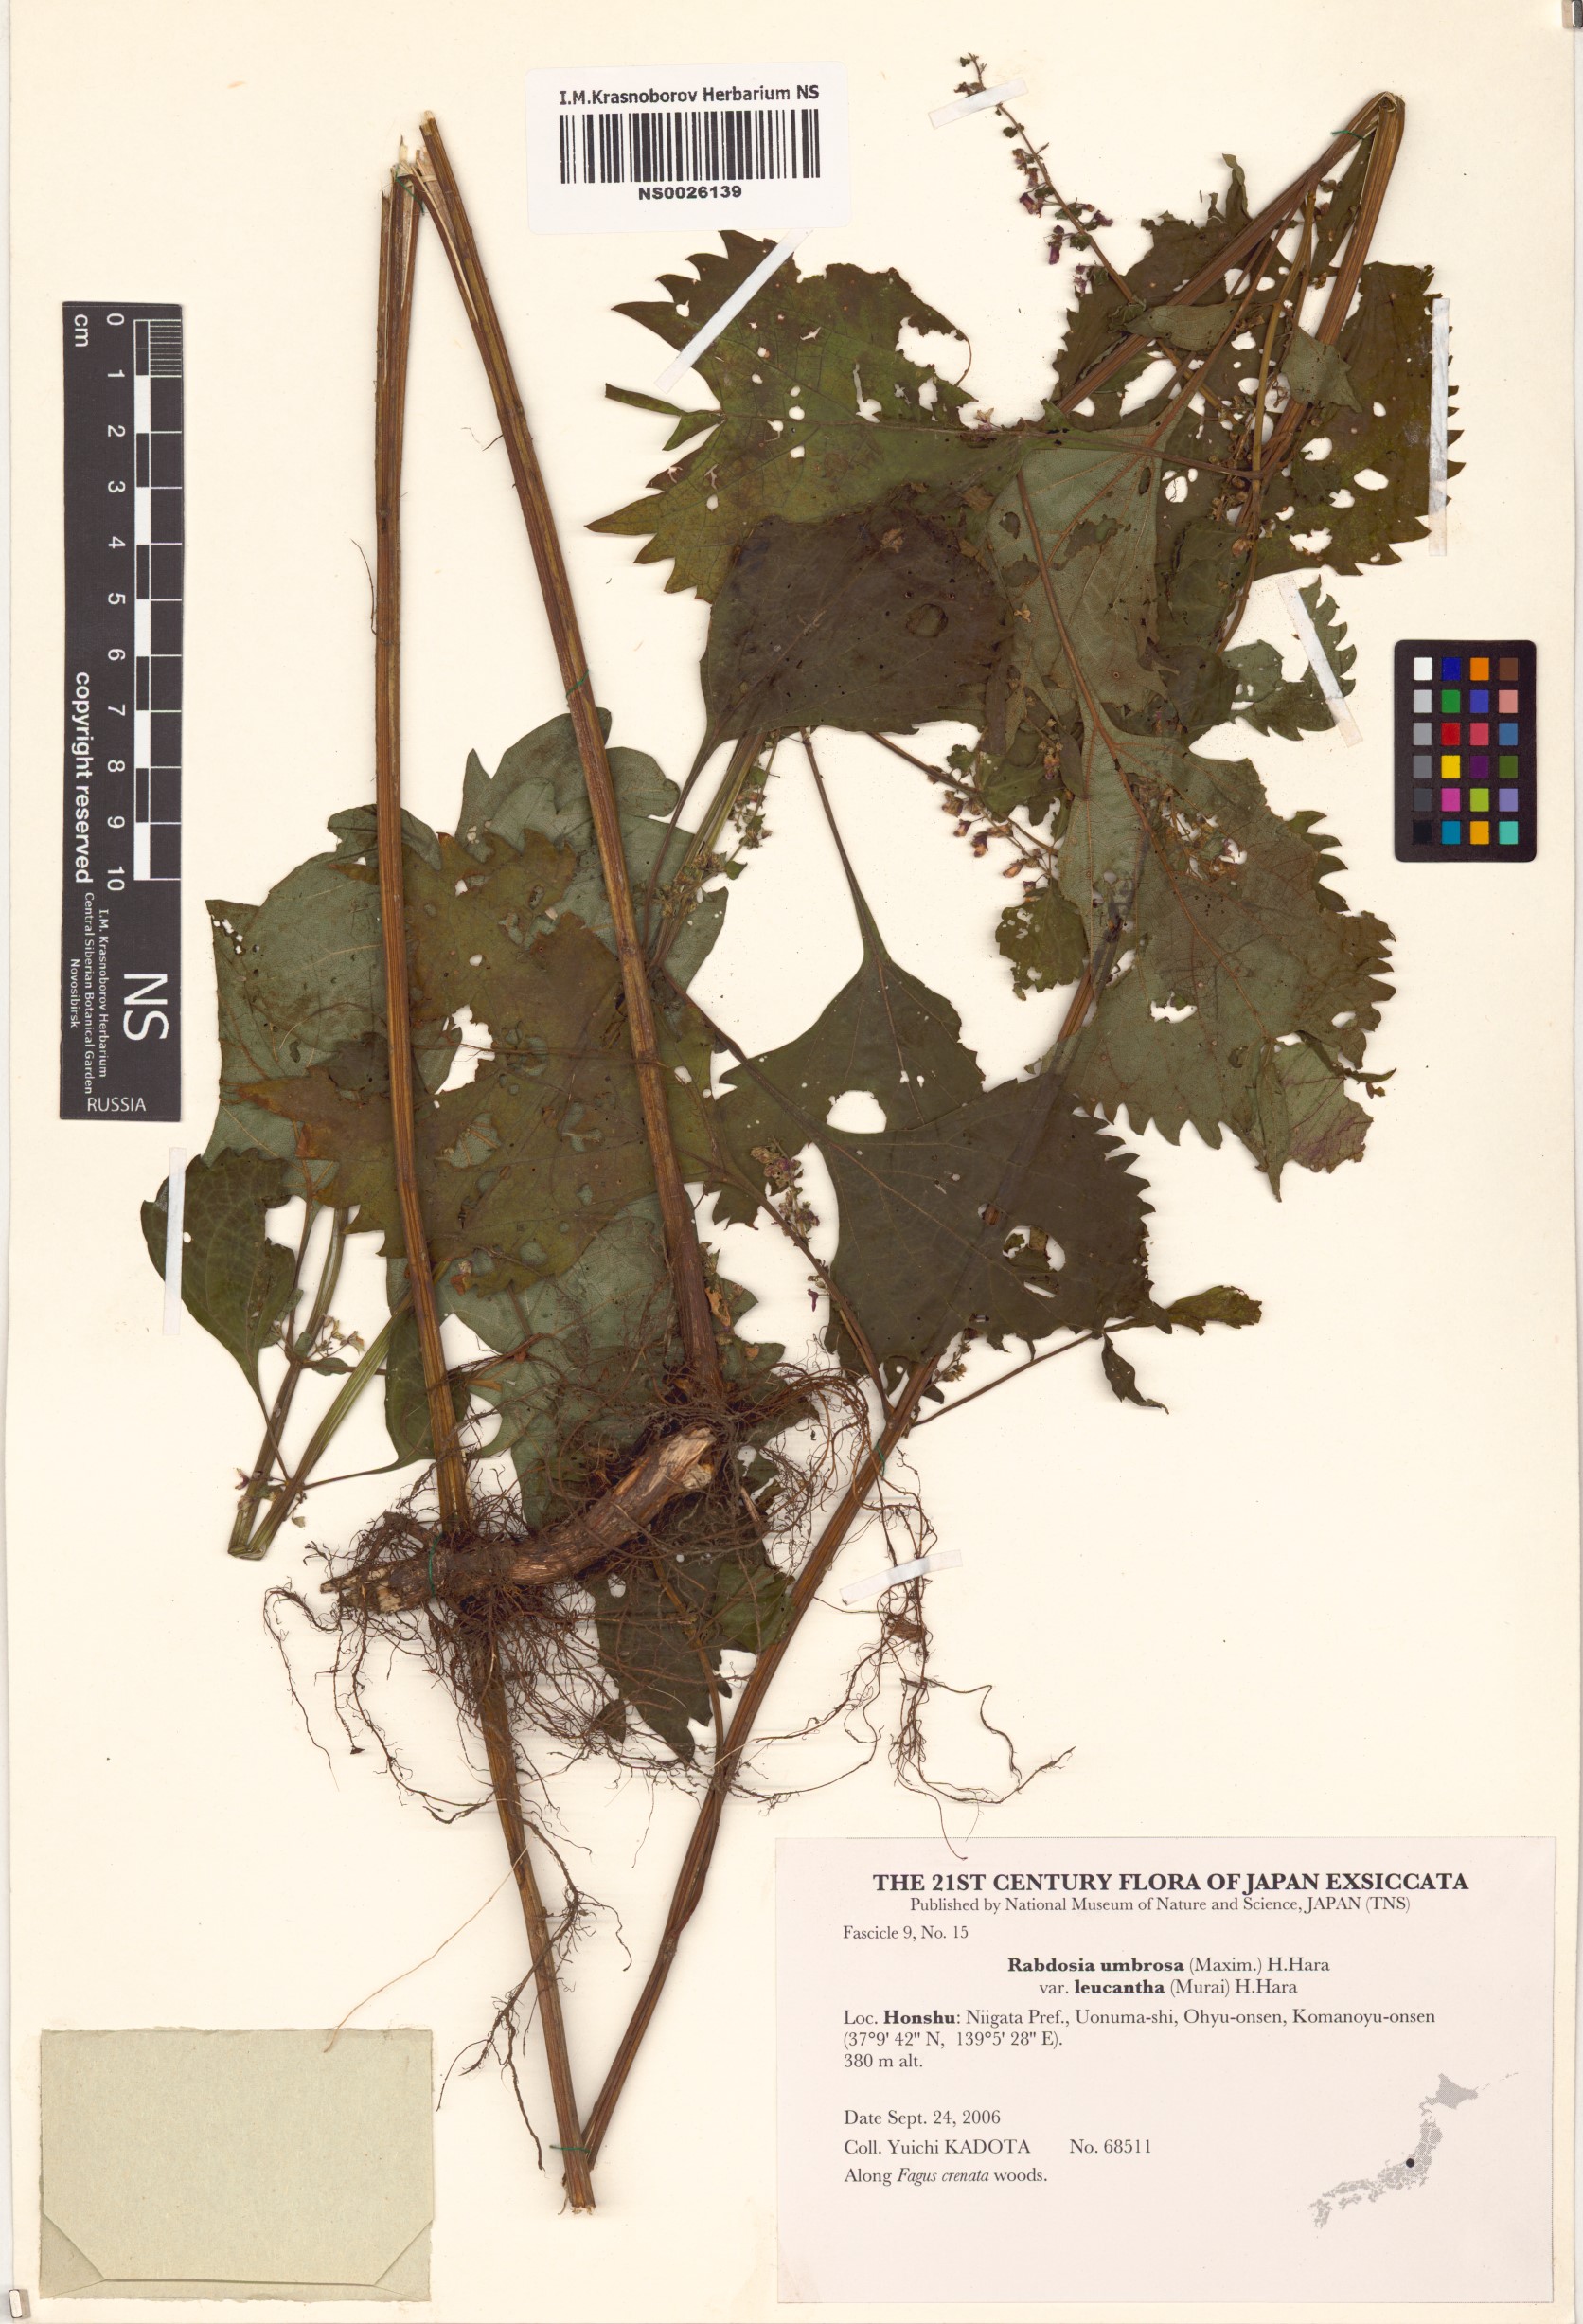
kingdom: Plantae
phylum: Tracheophyta
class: Magnoliopsida
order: Lamiales
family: Lamiaceae
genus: Isodon
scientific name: Isodon umbrosus
